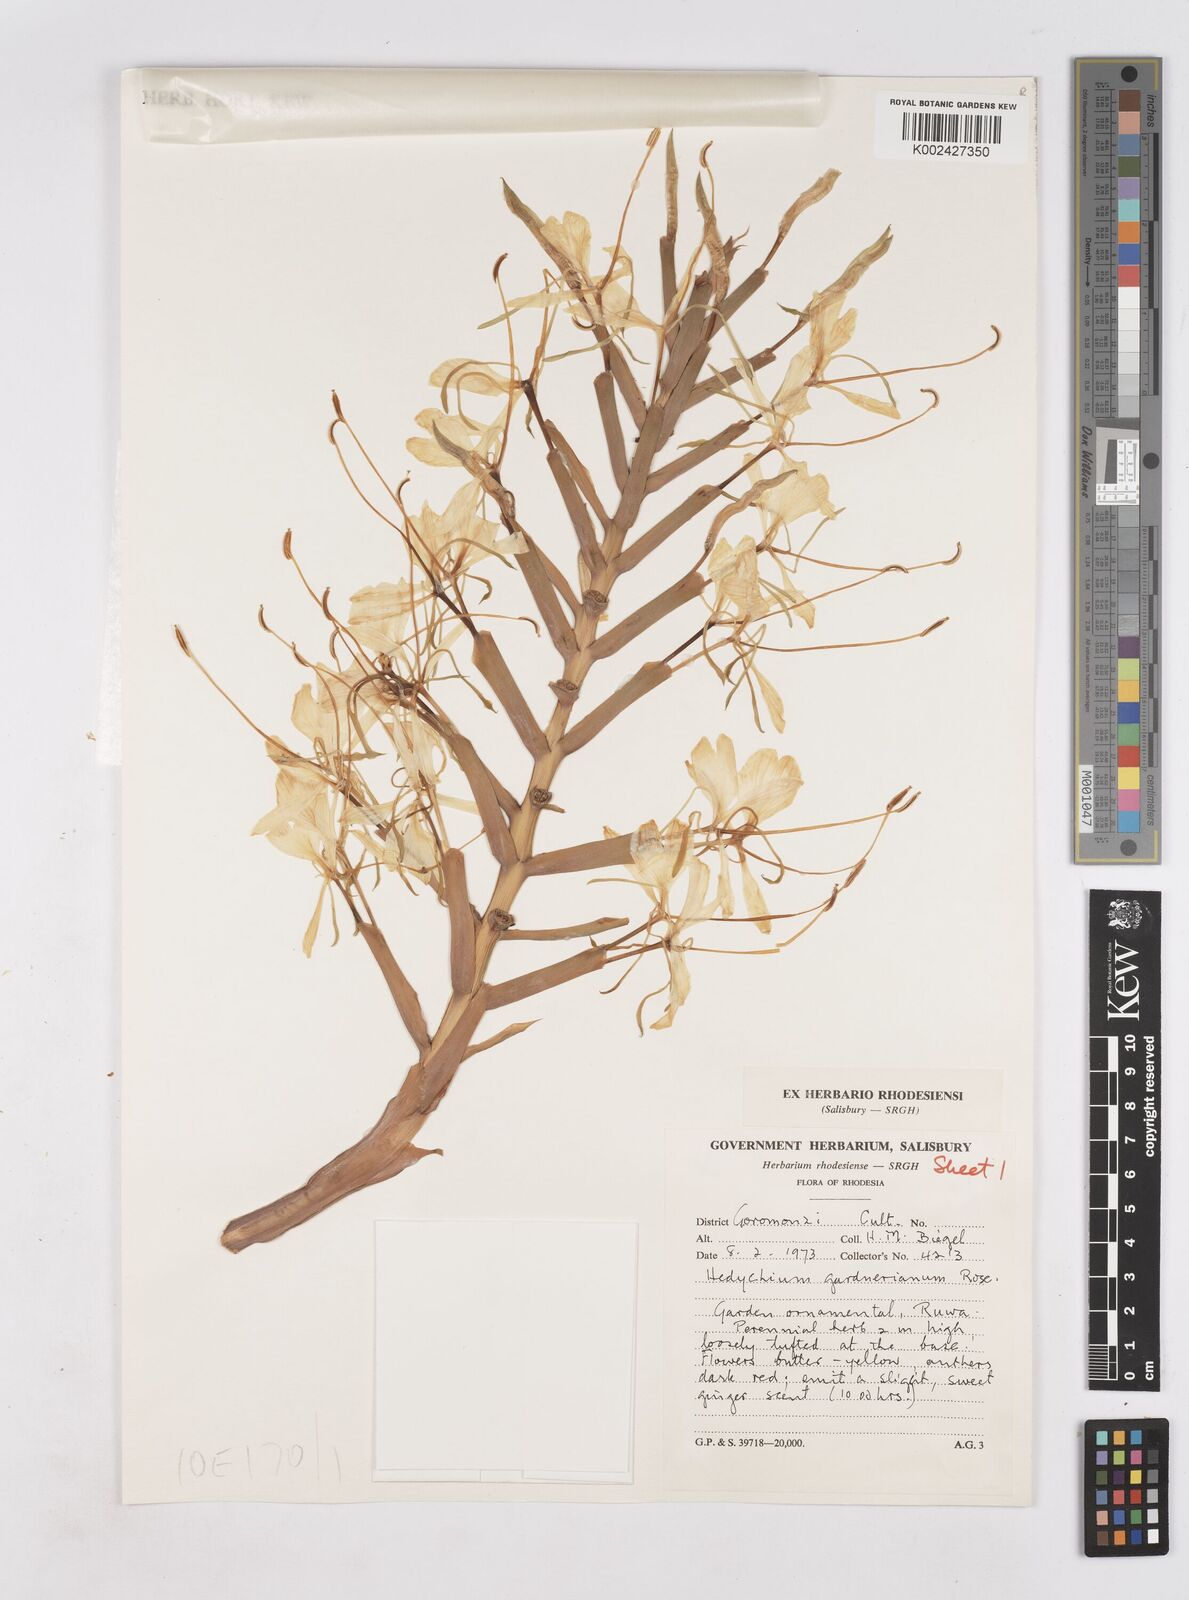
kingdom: Plantae
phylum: Tracheophyta
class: Liliopsida
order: Zingiberales
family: Zingiberaceae
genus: Hedychium
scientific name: Hedychium gardnerianum
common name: Himalayan ginger
